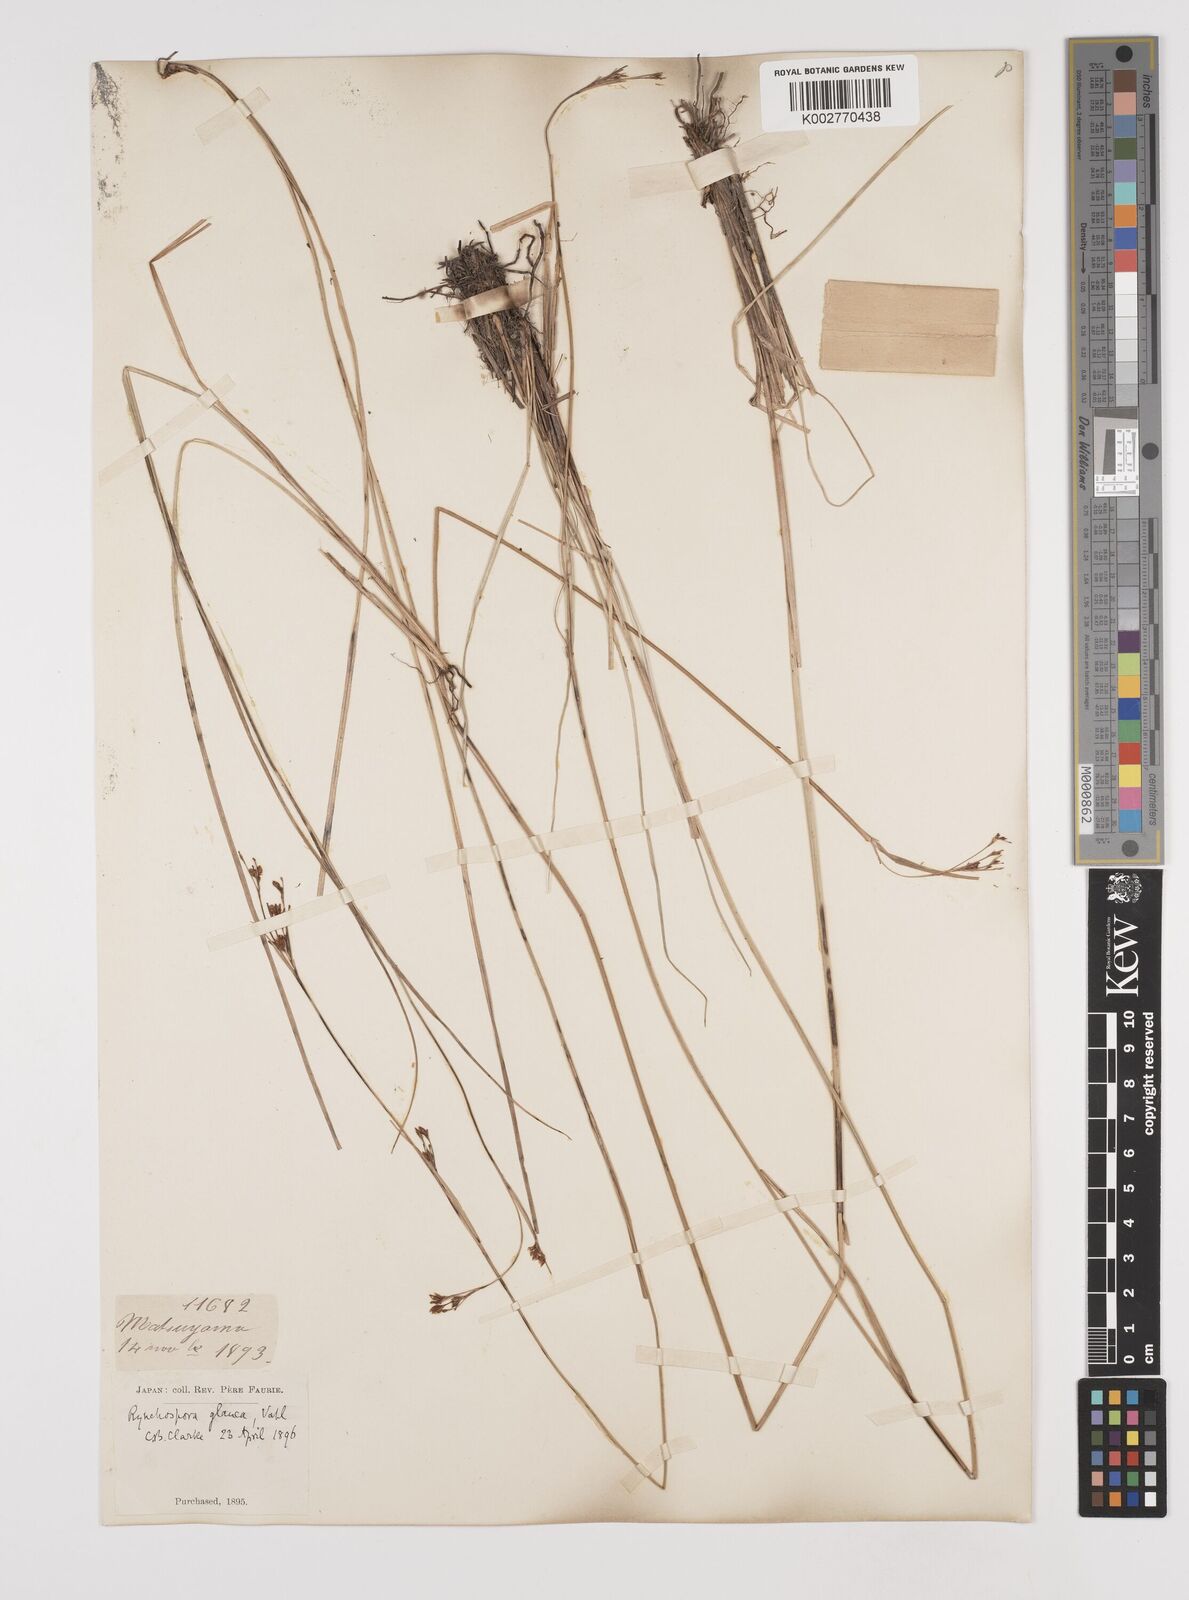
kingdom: Plantae
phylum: Tracheophyta
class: Liliopsida
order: Poales
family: Cyperaceae
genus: Rhynchospora
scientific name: Rhynchospora
